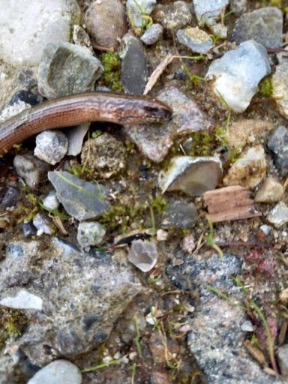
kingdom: Animalia
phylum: Chordata
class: Squamata
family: Anguidae
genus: Anguis
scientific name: Anguis fragilis
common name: Stålorm
